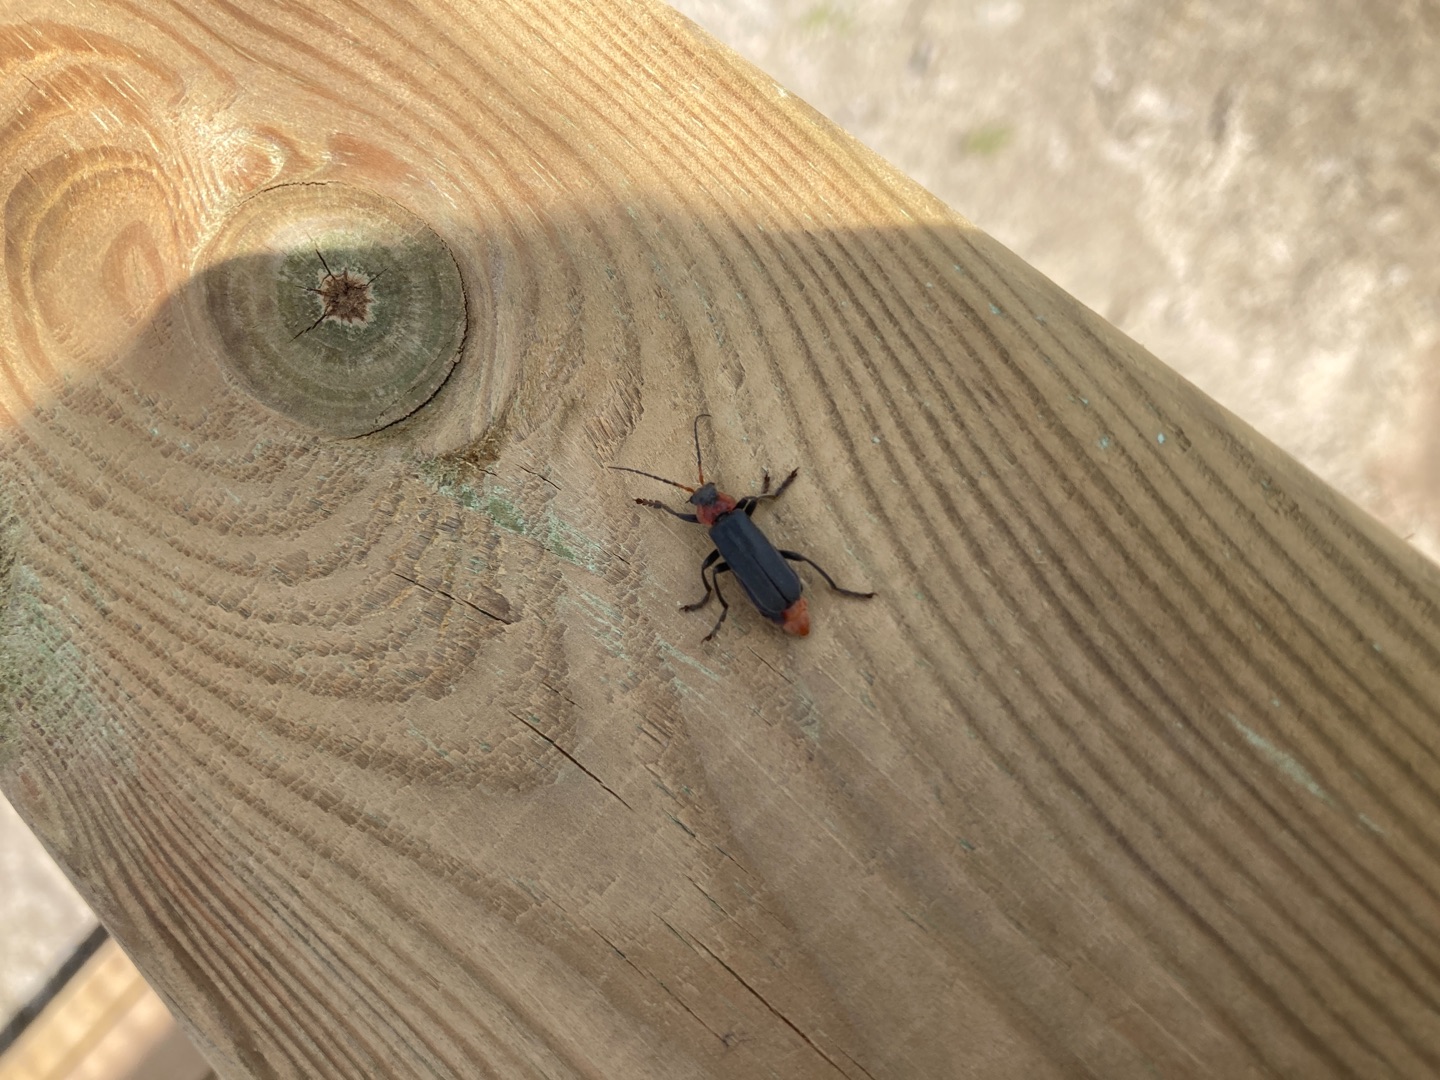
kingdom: Animalia
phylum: Arthropoda
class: Insecta
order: Coleoptera
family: Cantharidae
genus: Cantharis
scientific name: Cantharis fusca
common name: Stor blødvinge
